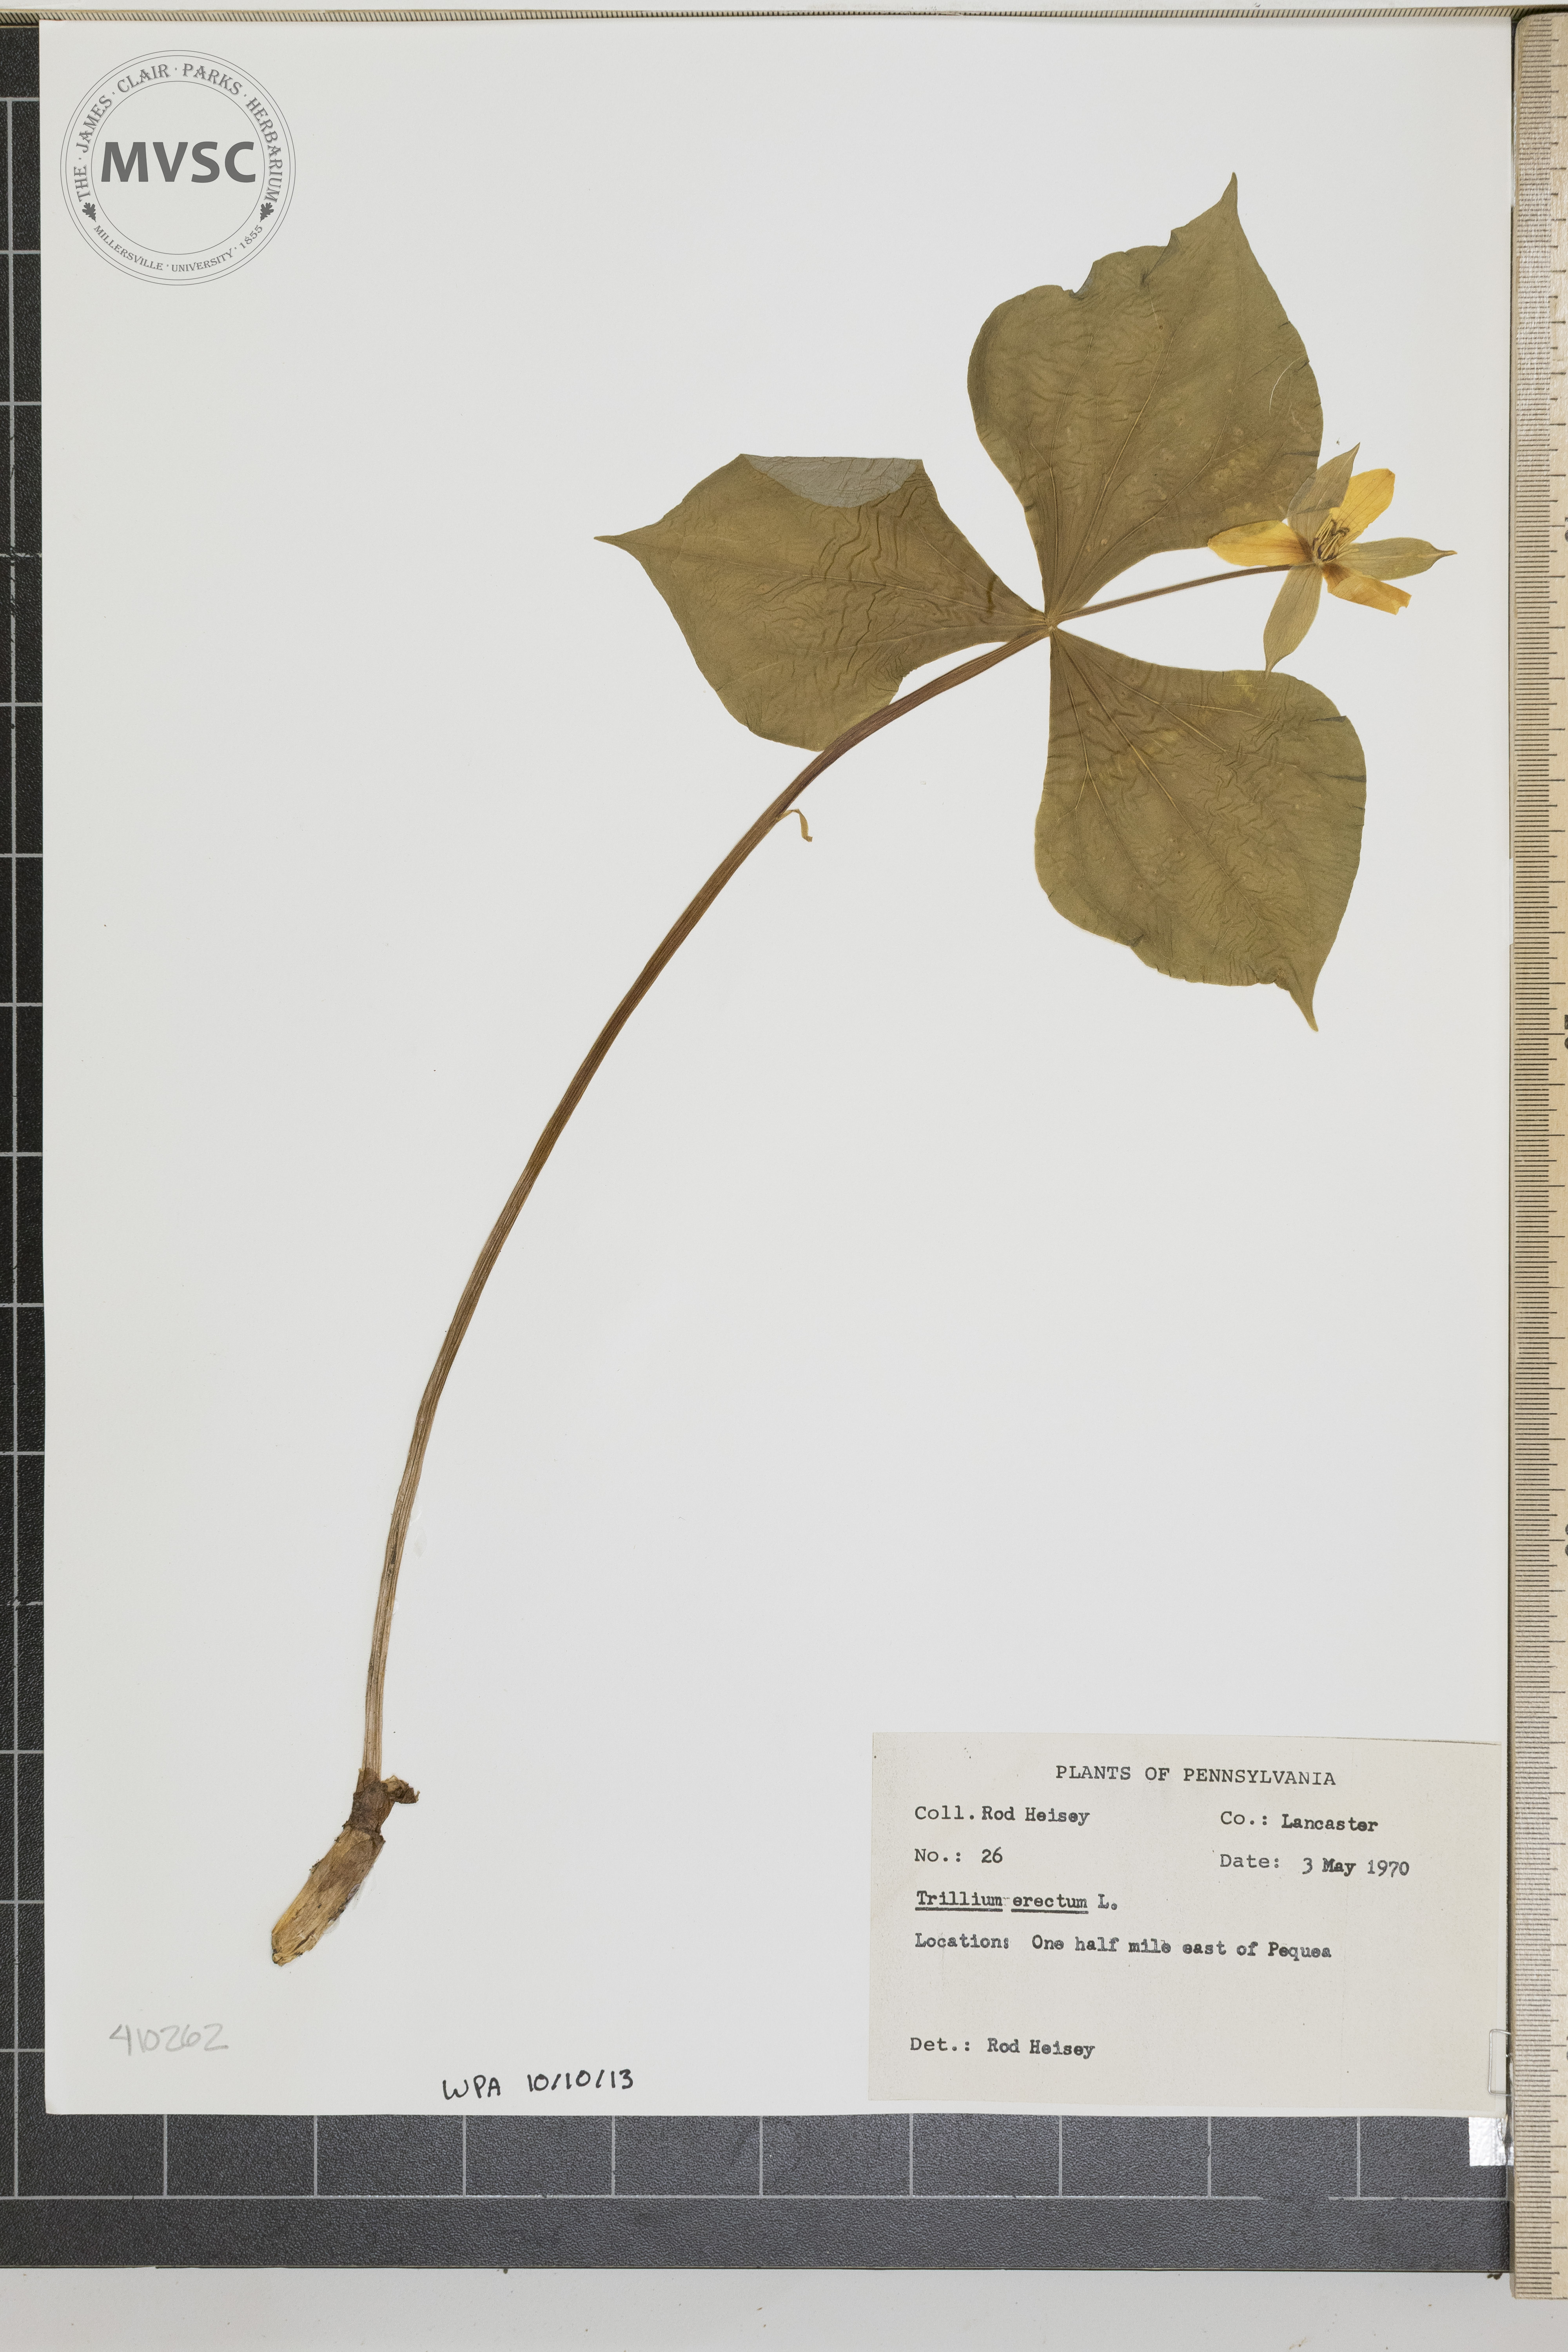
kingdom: Plantae
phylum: Tracheophyta
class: Liliopsida
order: Liliales
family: Melanthiaceae
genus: Trillium
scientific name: Trillium erectum
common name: Purple trillium
